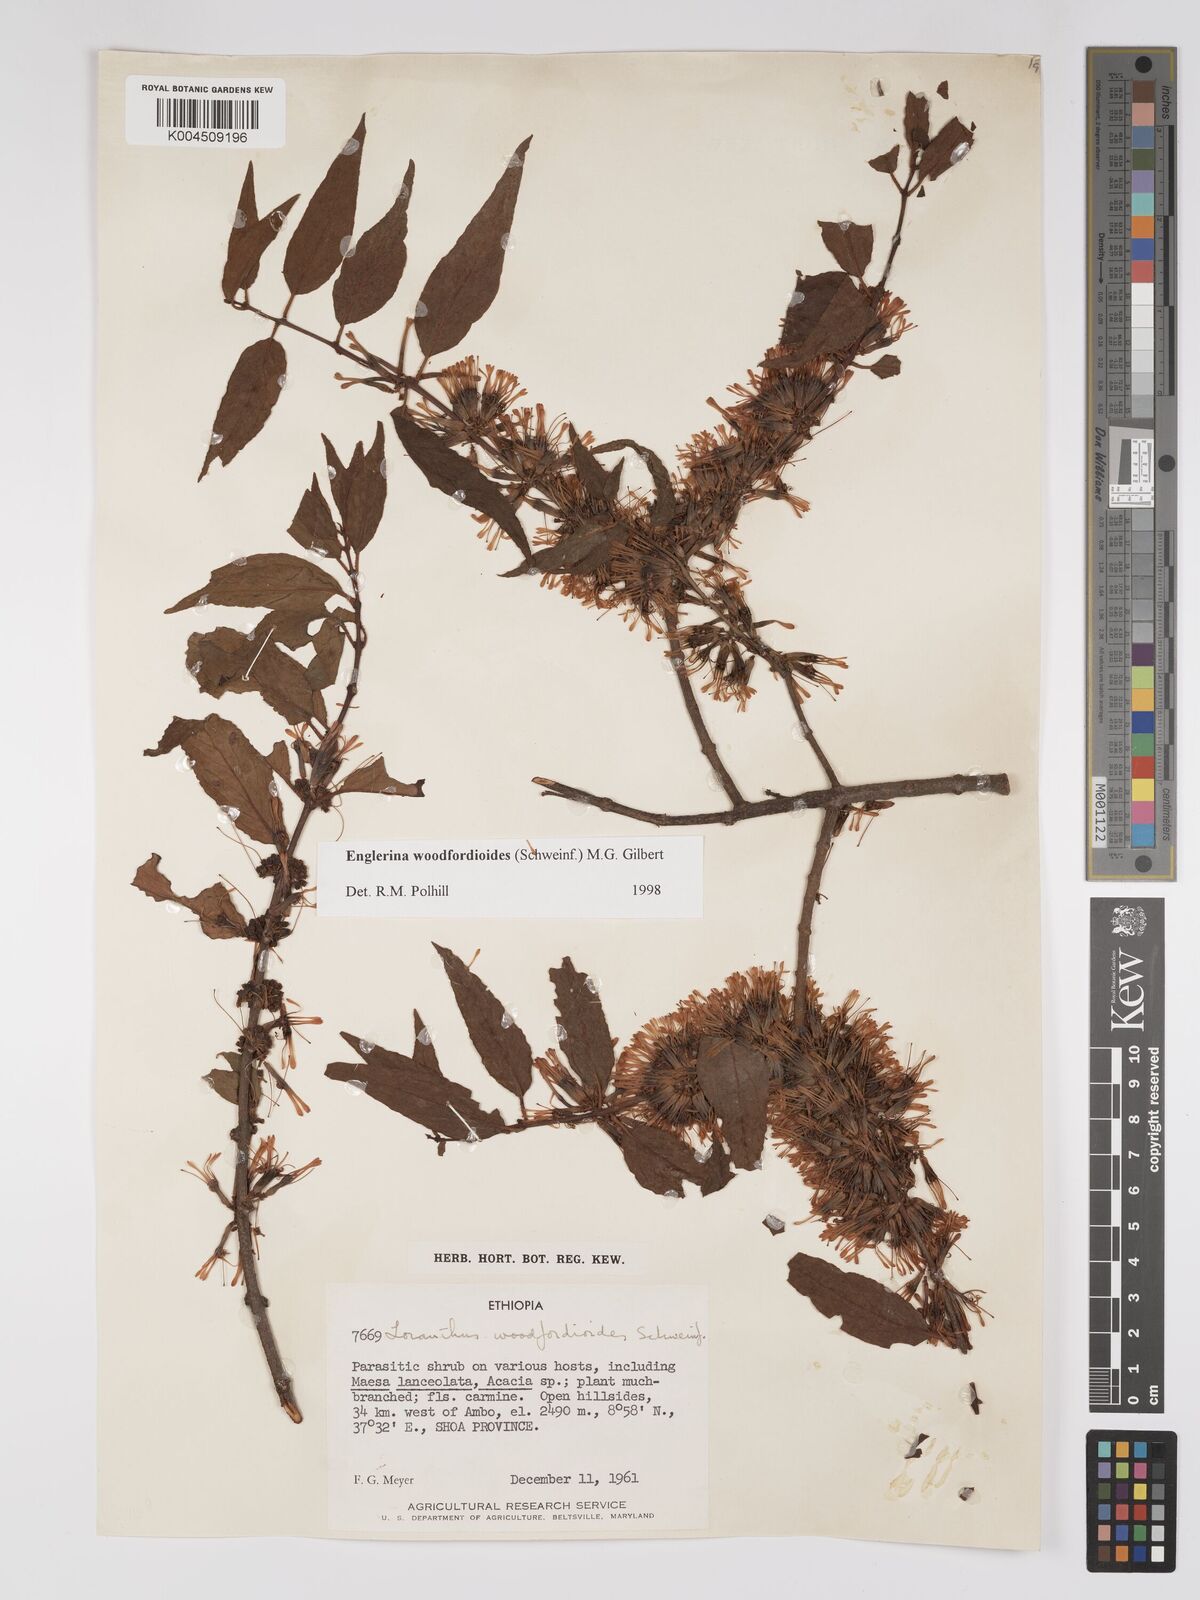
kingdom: Plantae
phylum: Tracheophyta
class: Magnoliopsida
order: Santalales
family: Loranthaceae
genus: Englerina
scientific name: Englerina woodfordioides
